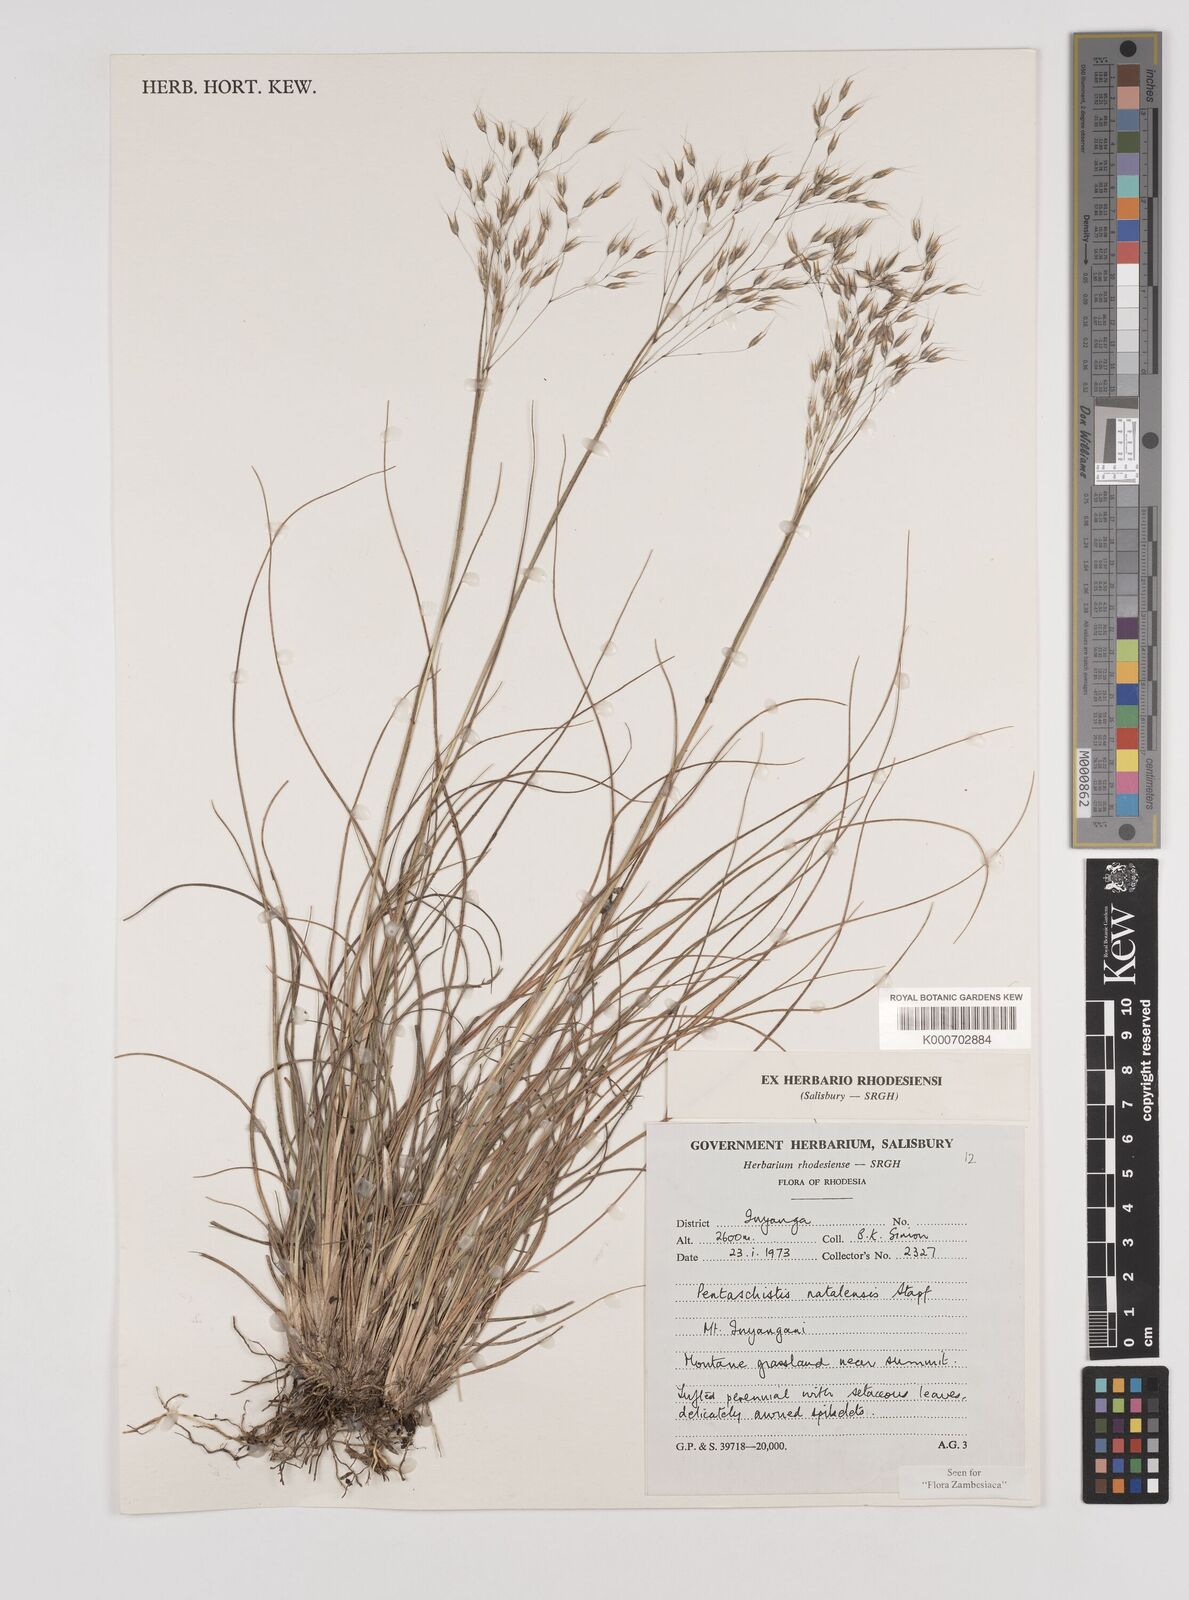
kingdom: Plantae
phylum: Tracheophyta
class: Liliopsida
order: Poales
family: Poaceae
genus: Pentameris
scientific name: Pentameris natalensis
